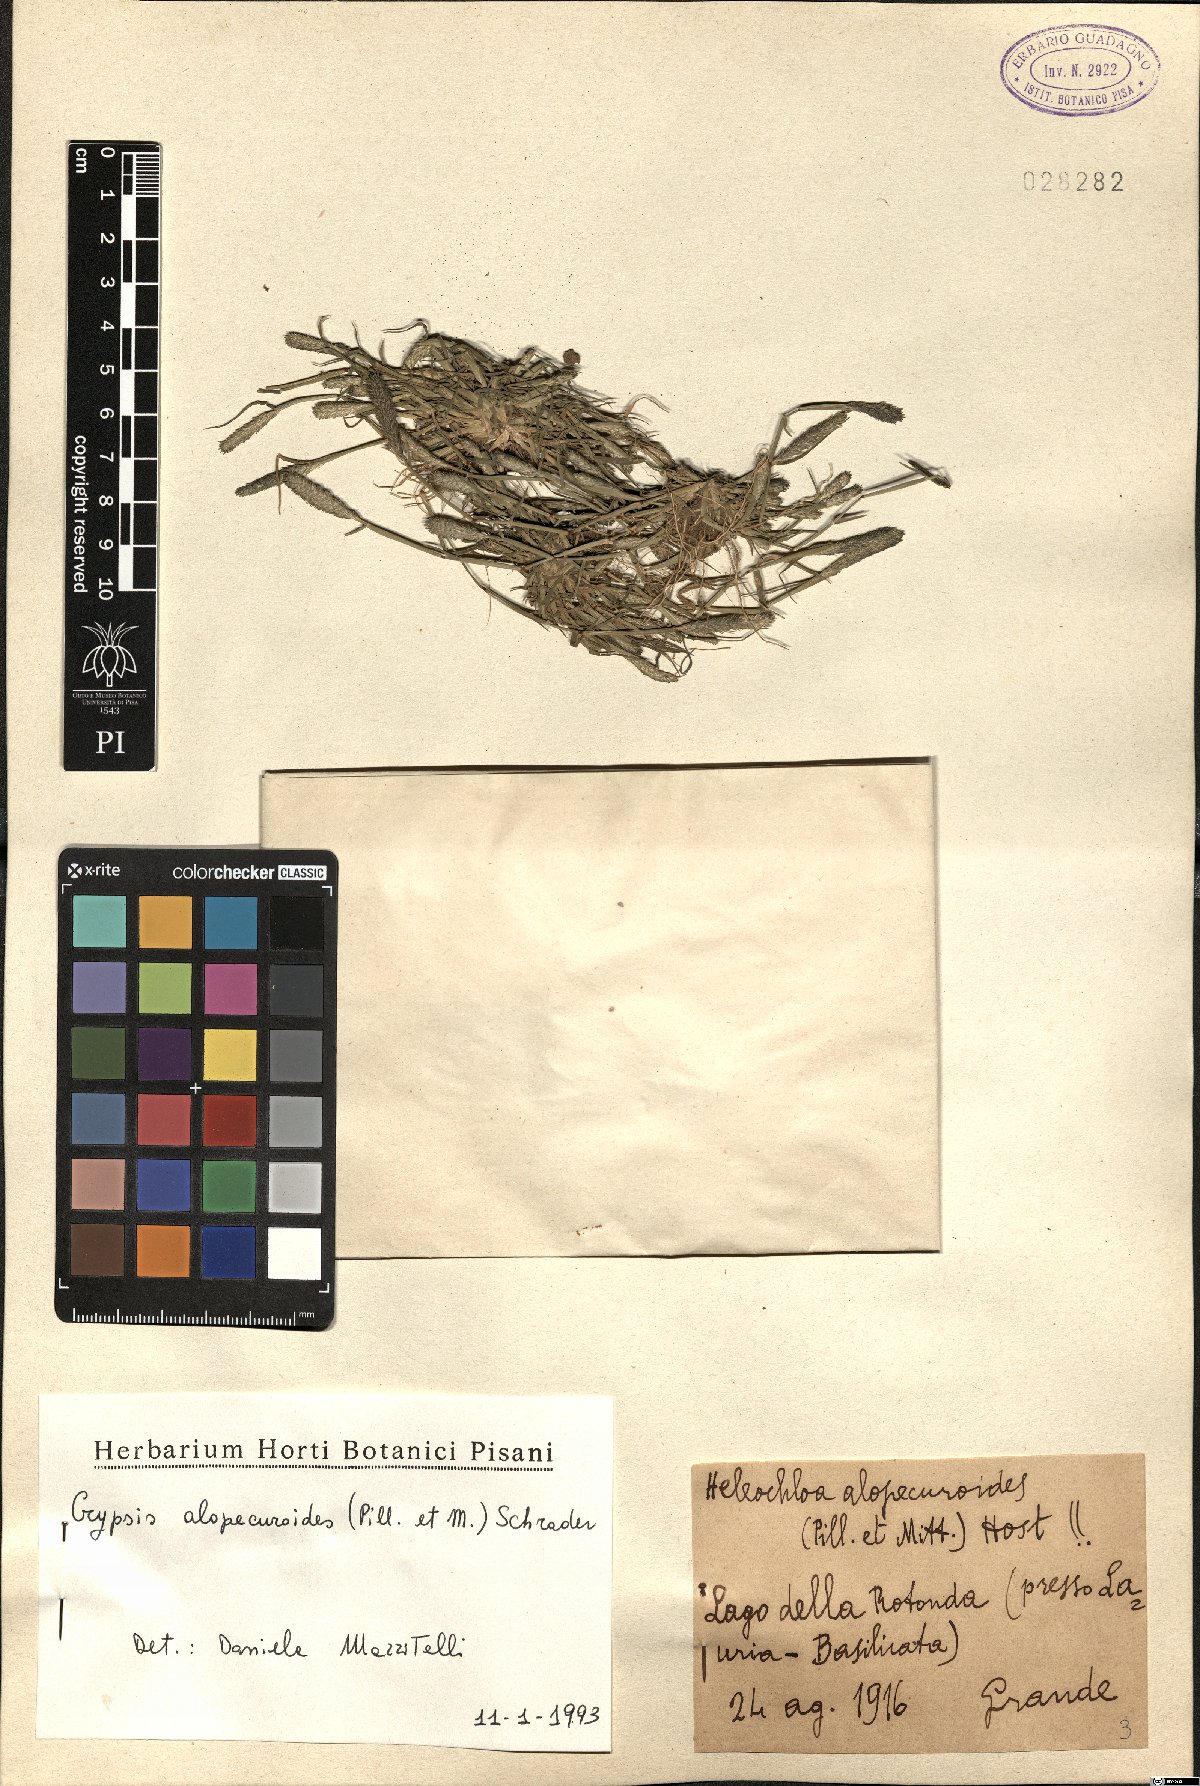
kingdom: Plantae
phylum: Tracheophyta
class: Liliopsida
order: Poales
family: Poaceae
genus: Sporobolus
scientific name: Sporobolus alopecuroides
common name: Foxtail pricklegrass
